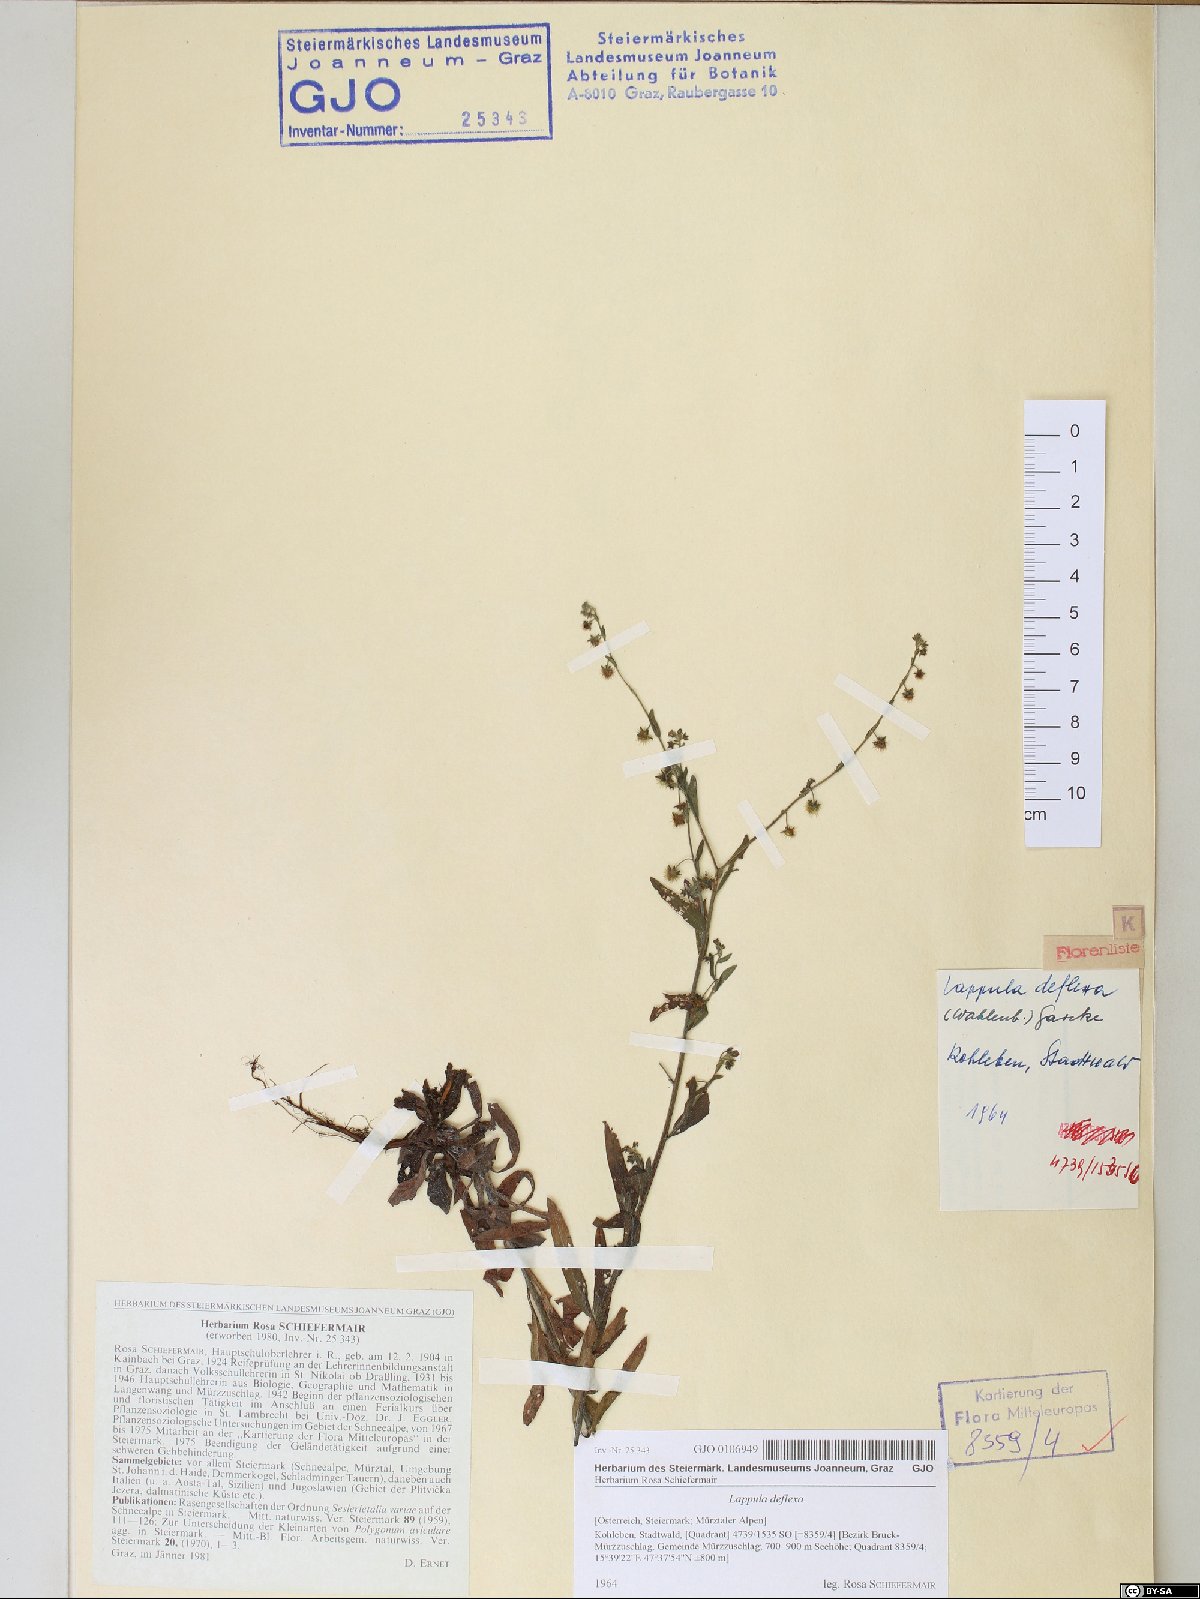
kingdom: Plantae
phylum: Tracheophyta
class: Magnoliopsida
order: Boraginales
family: Boraginaceae
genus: Hackelia
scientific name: Hackelia deflexa
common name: Nodding stickseed
